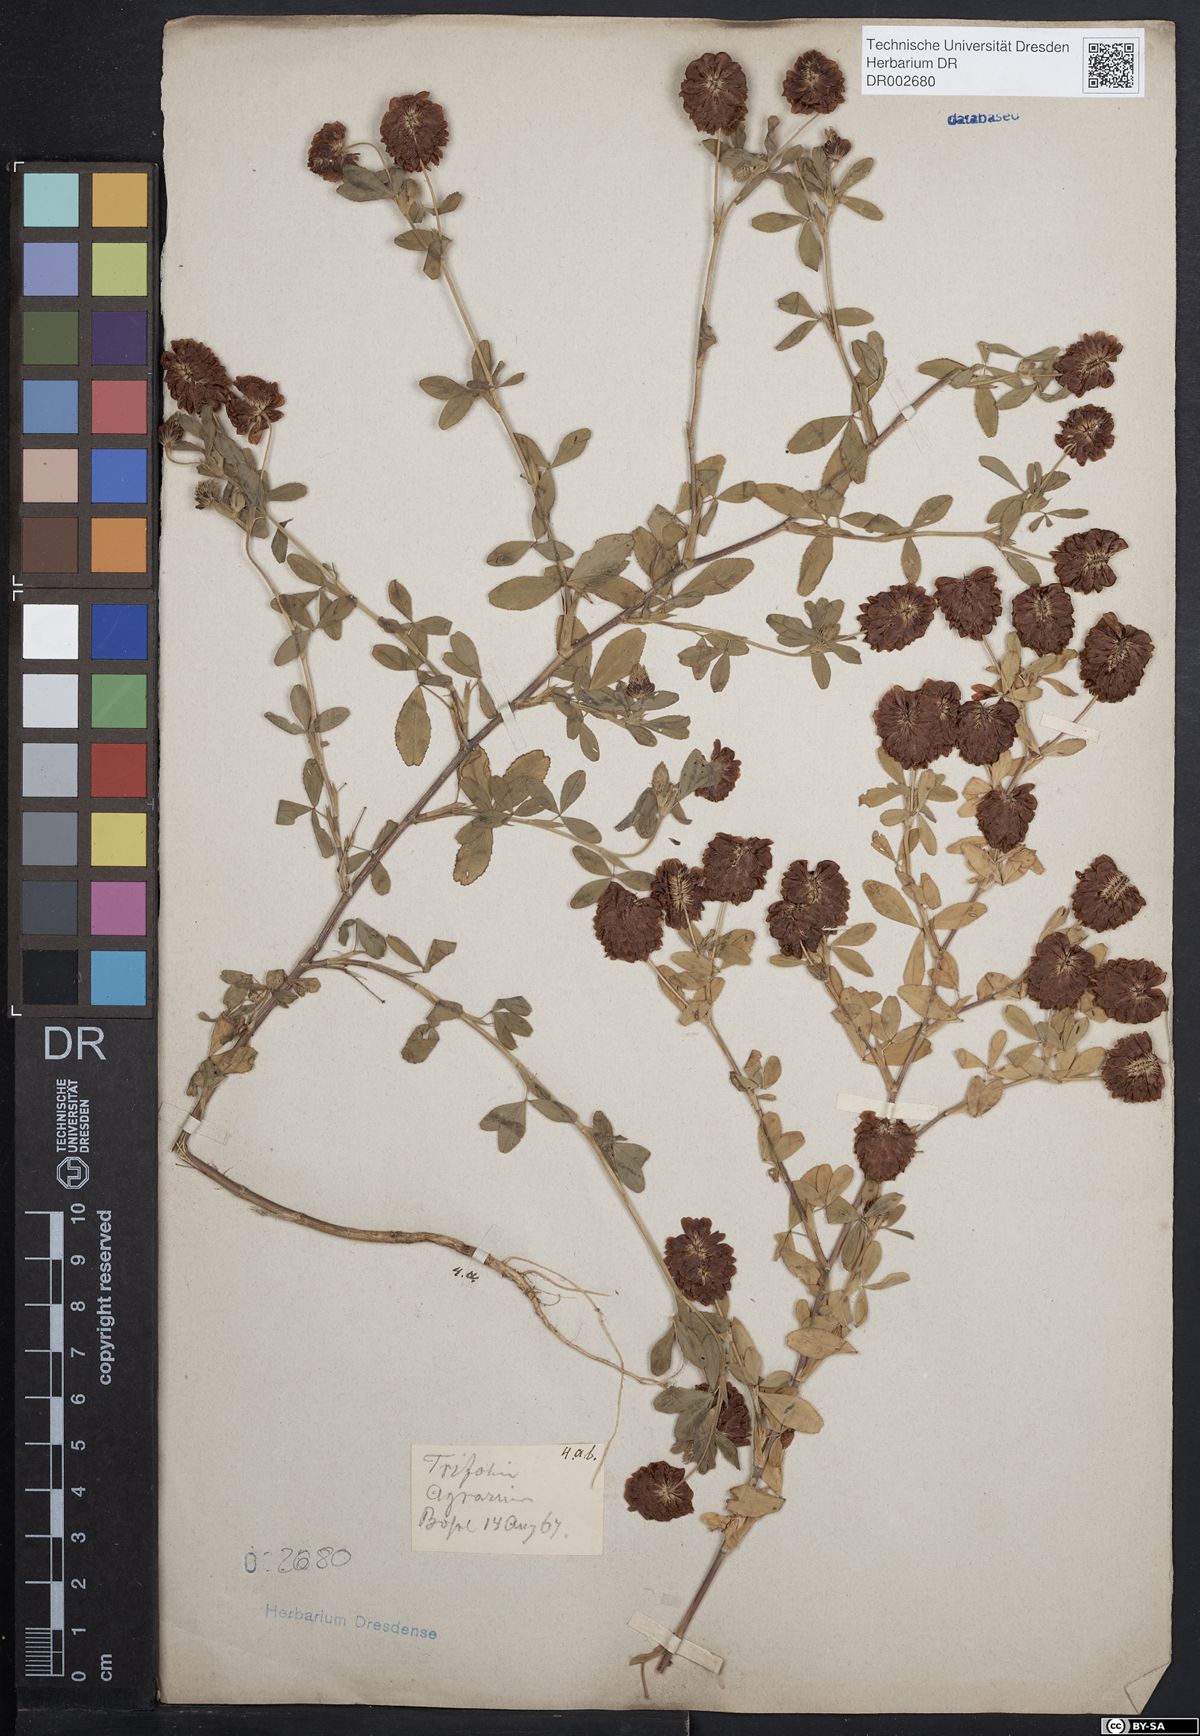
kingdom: Plantae
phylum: Tracheophyta
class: Magnoliopsida
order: Fabales
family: Fabaceae
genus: Trifolium
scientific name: Trifolium aureum
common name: Golden clover
